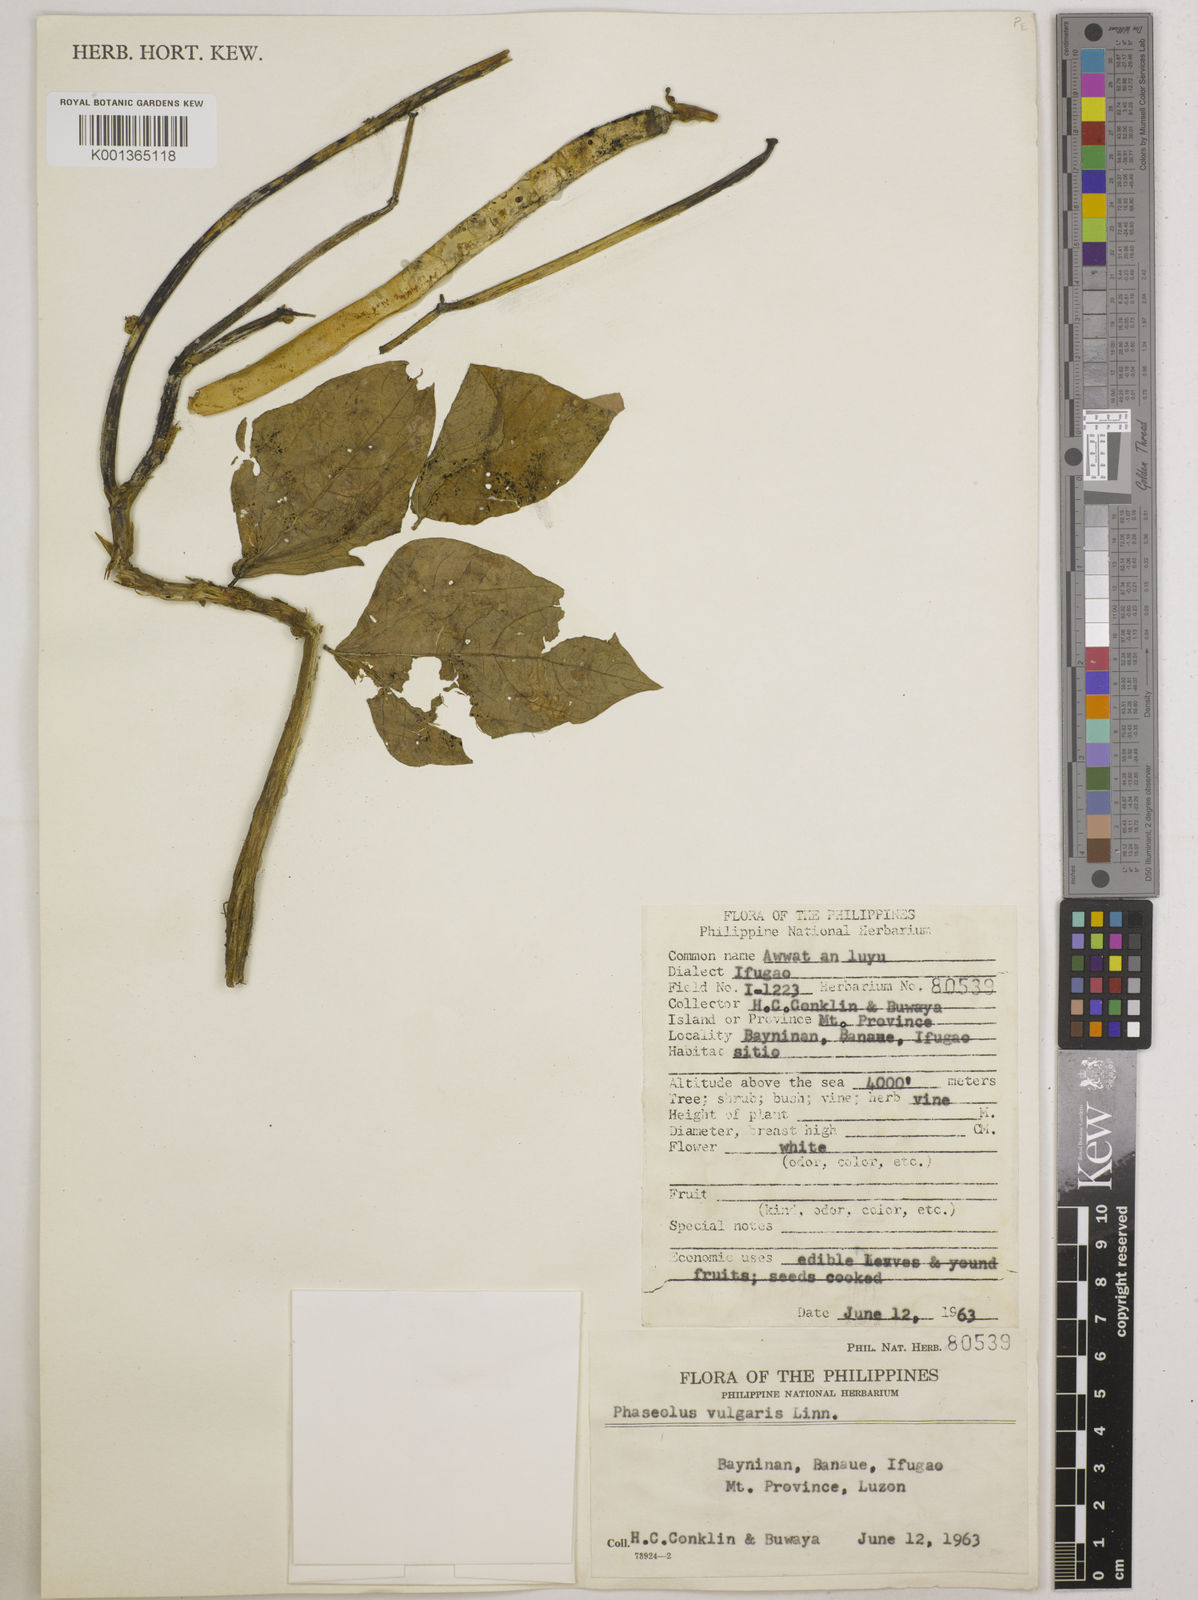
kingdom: Plantae
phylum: Tracheophyta
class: Magnoliopsida
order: Fabales
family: Fabaceae
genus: Phaseolus
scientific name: Phaseolus vulgaris
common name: Bean
